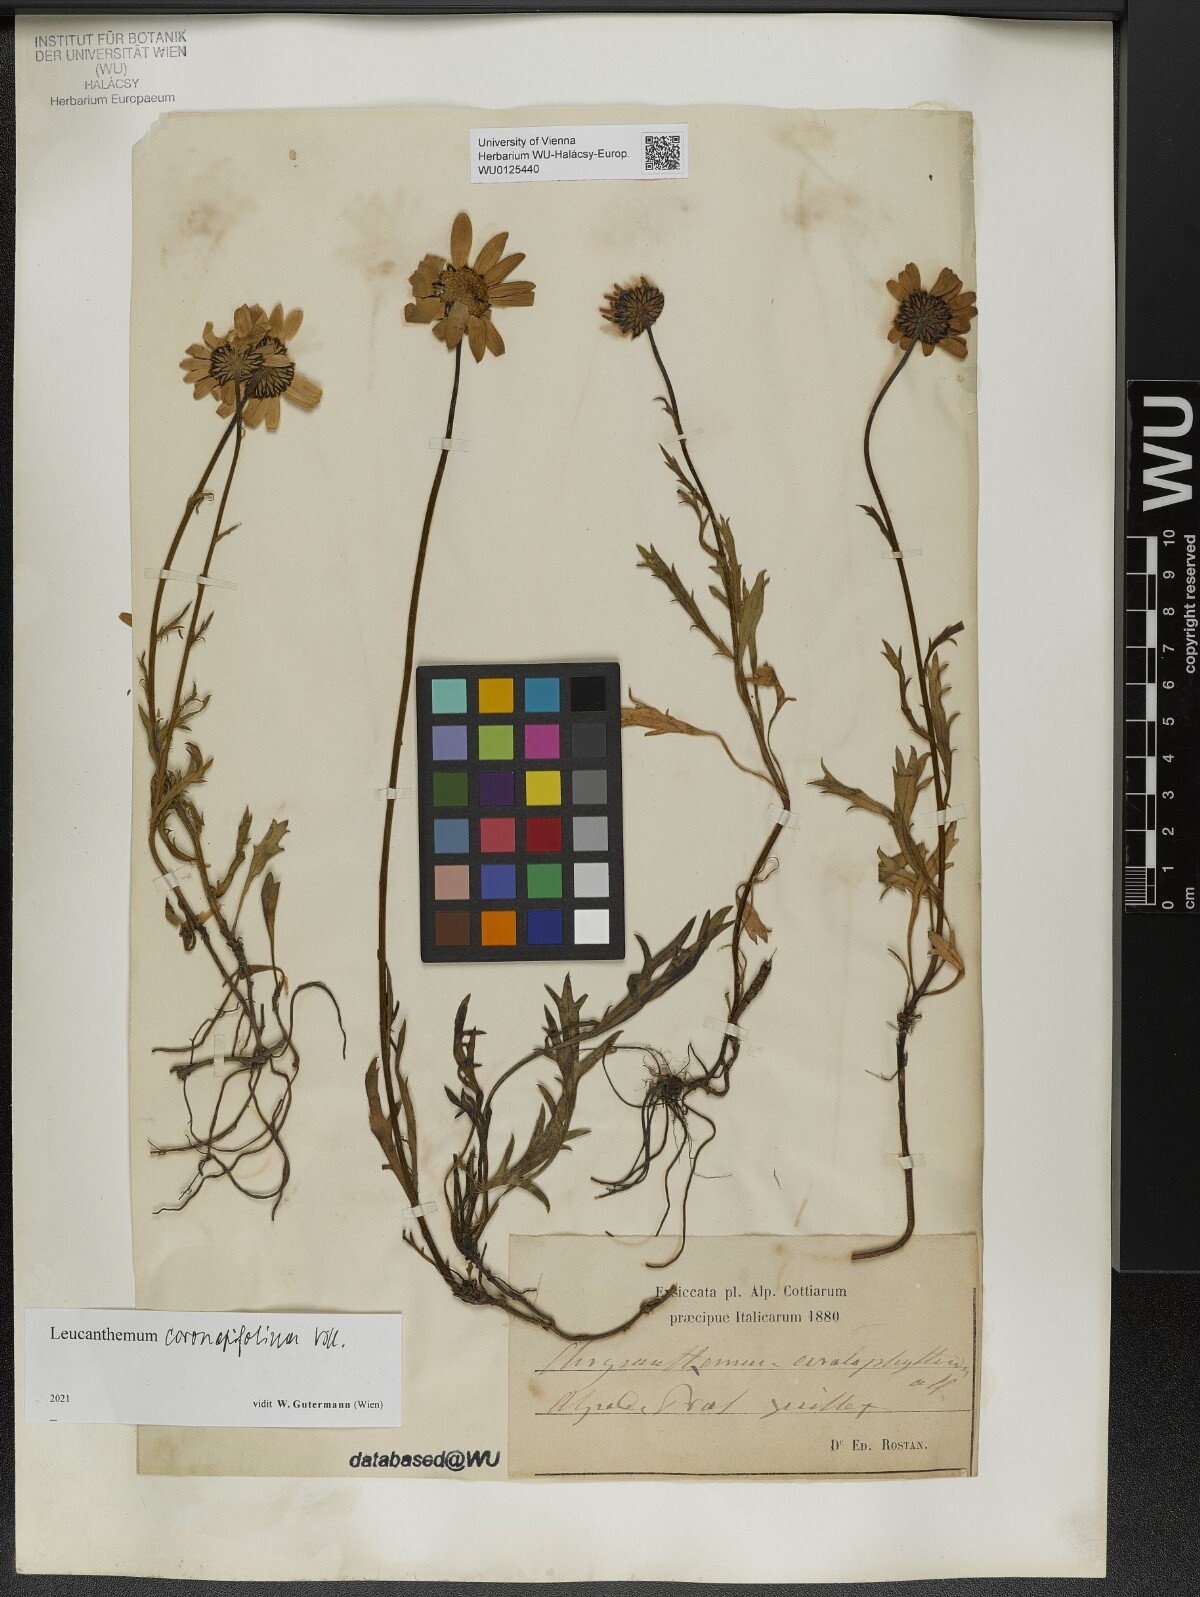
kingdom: Plantae
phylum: Tracheophyta
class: Magnoliopsida
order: Asterales
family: Asteraceae
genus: Leucanthemum
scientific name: Leucanthemum coronopifolium
